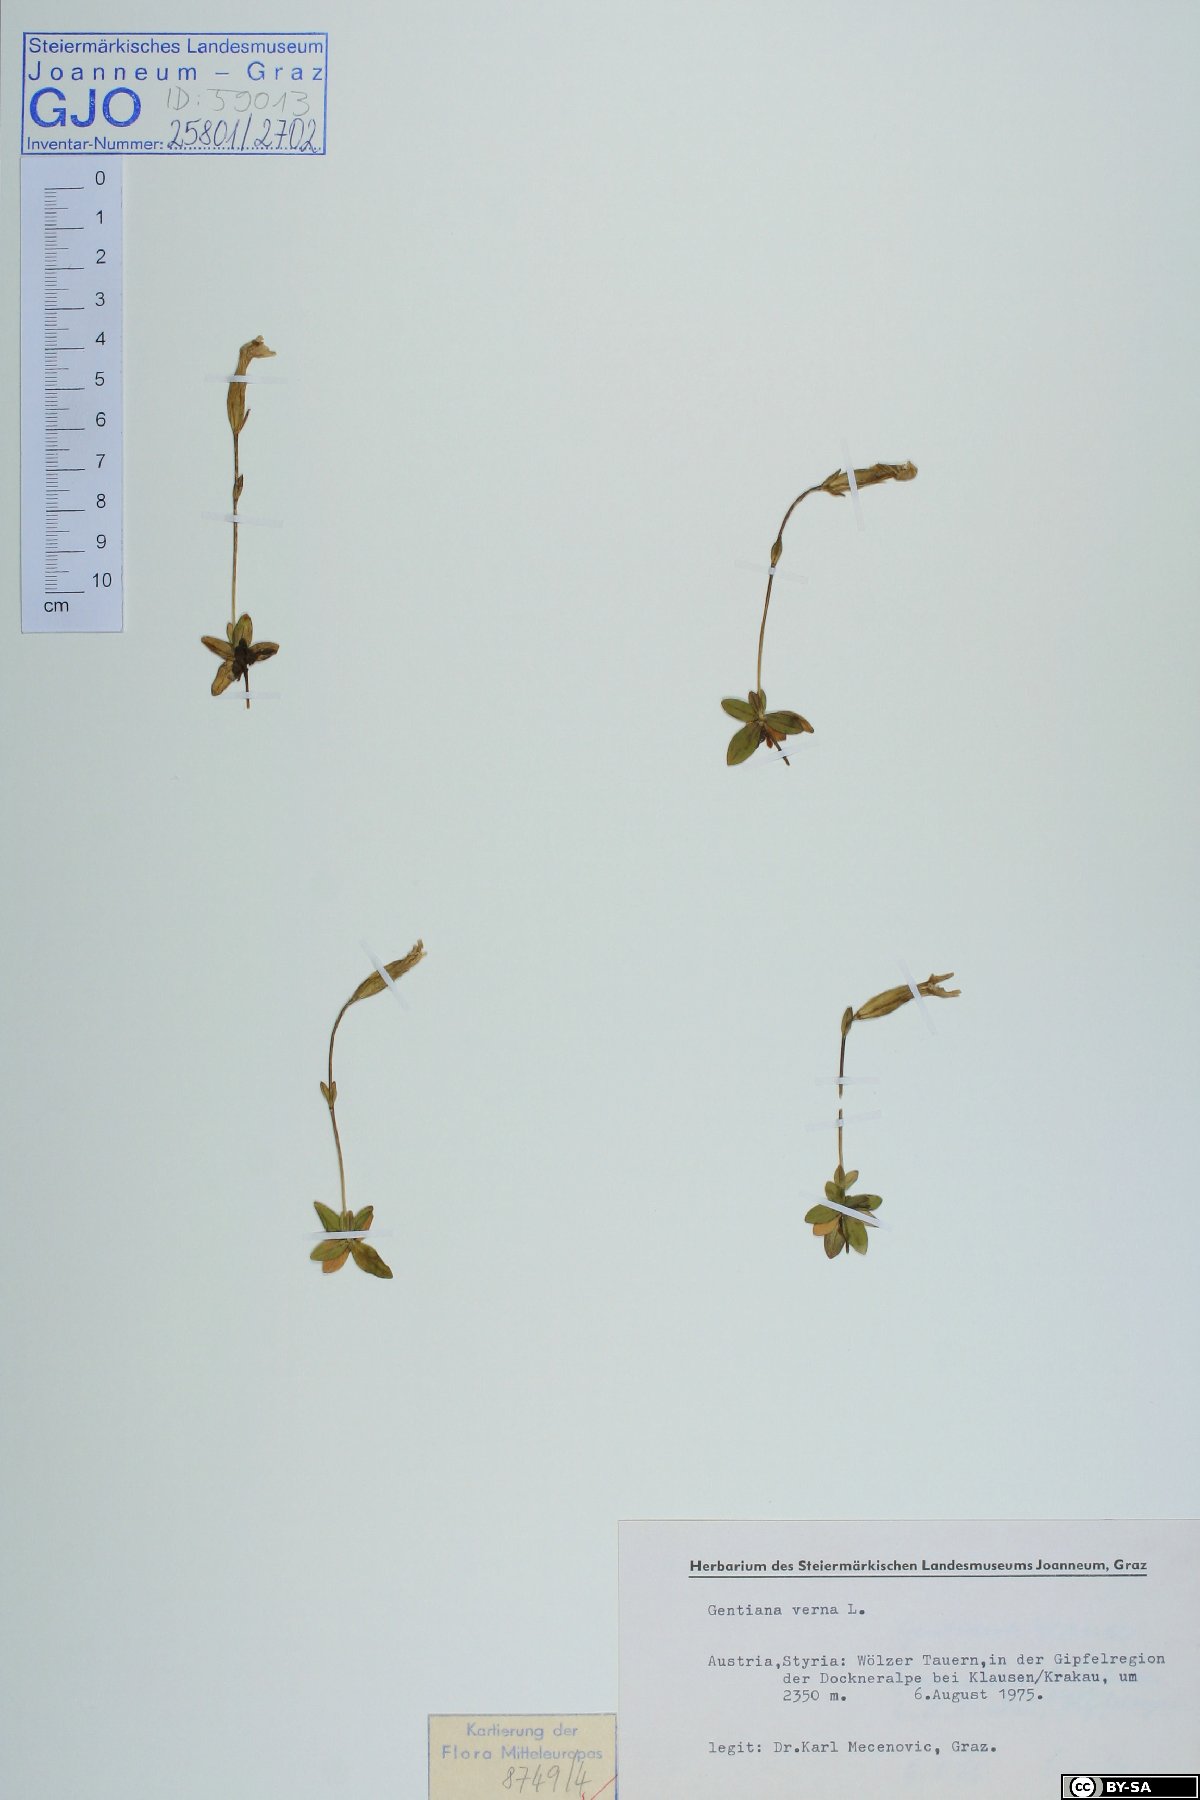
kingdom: Plantae
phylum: Tracheophyta
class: Magnoliopsida
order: Gentianales
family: Gentianaceae
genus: Gentiana
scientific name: Gentiana verna
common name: Spring gentian
